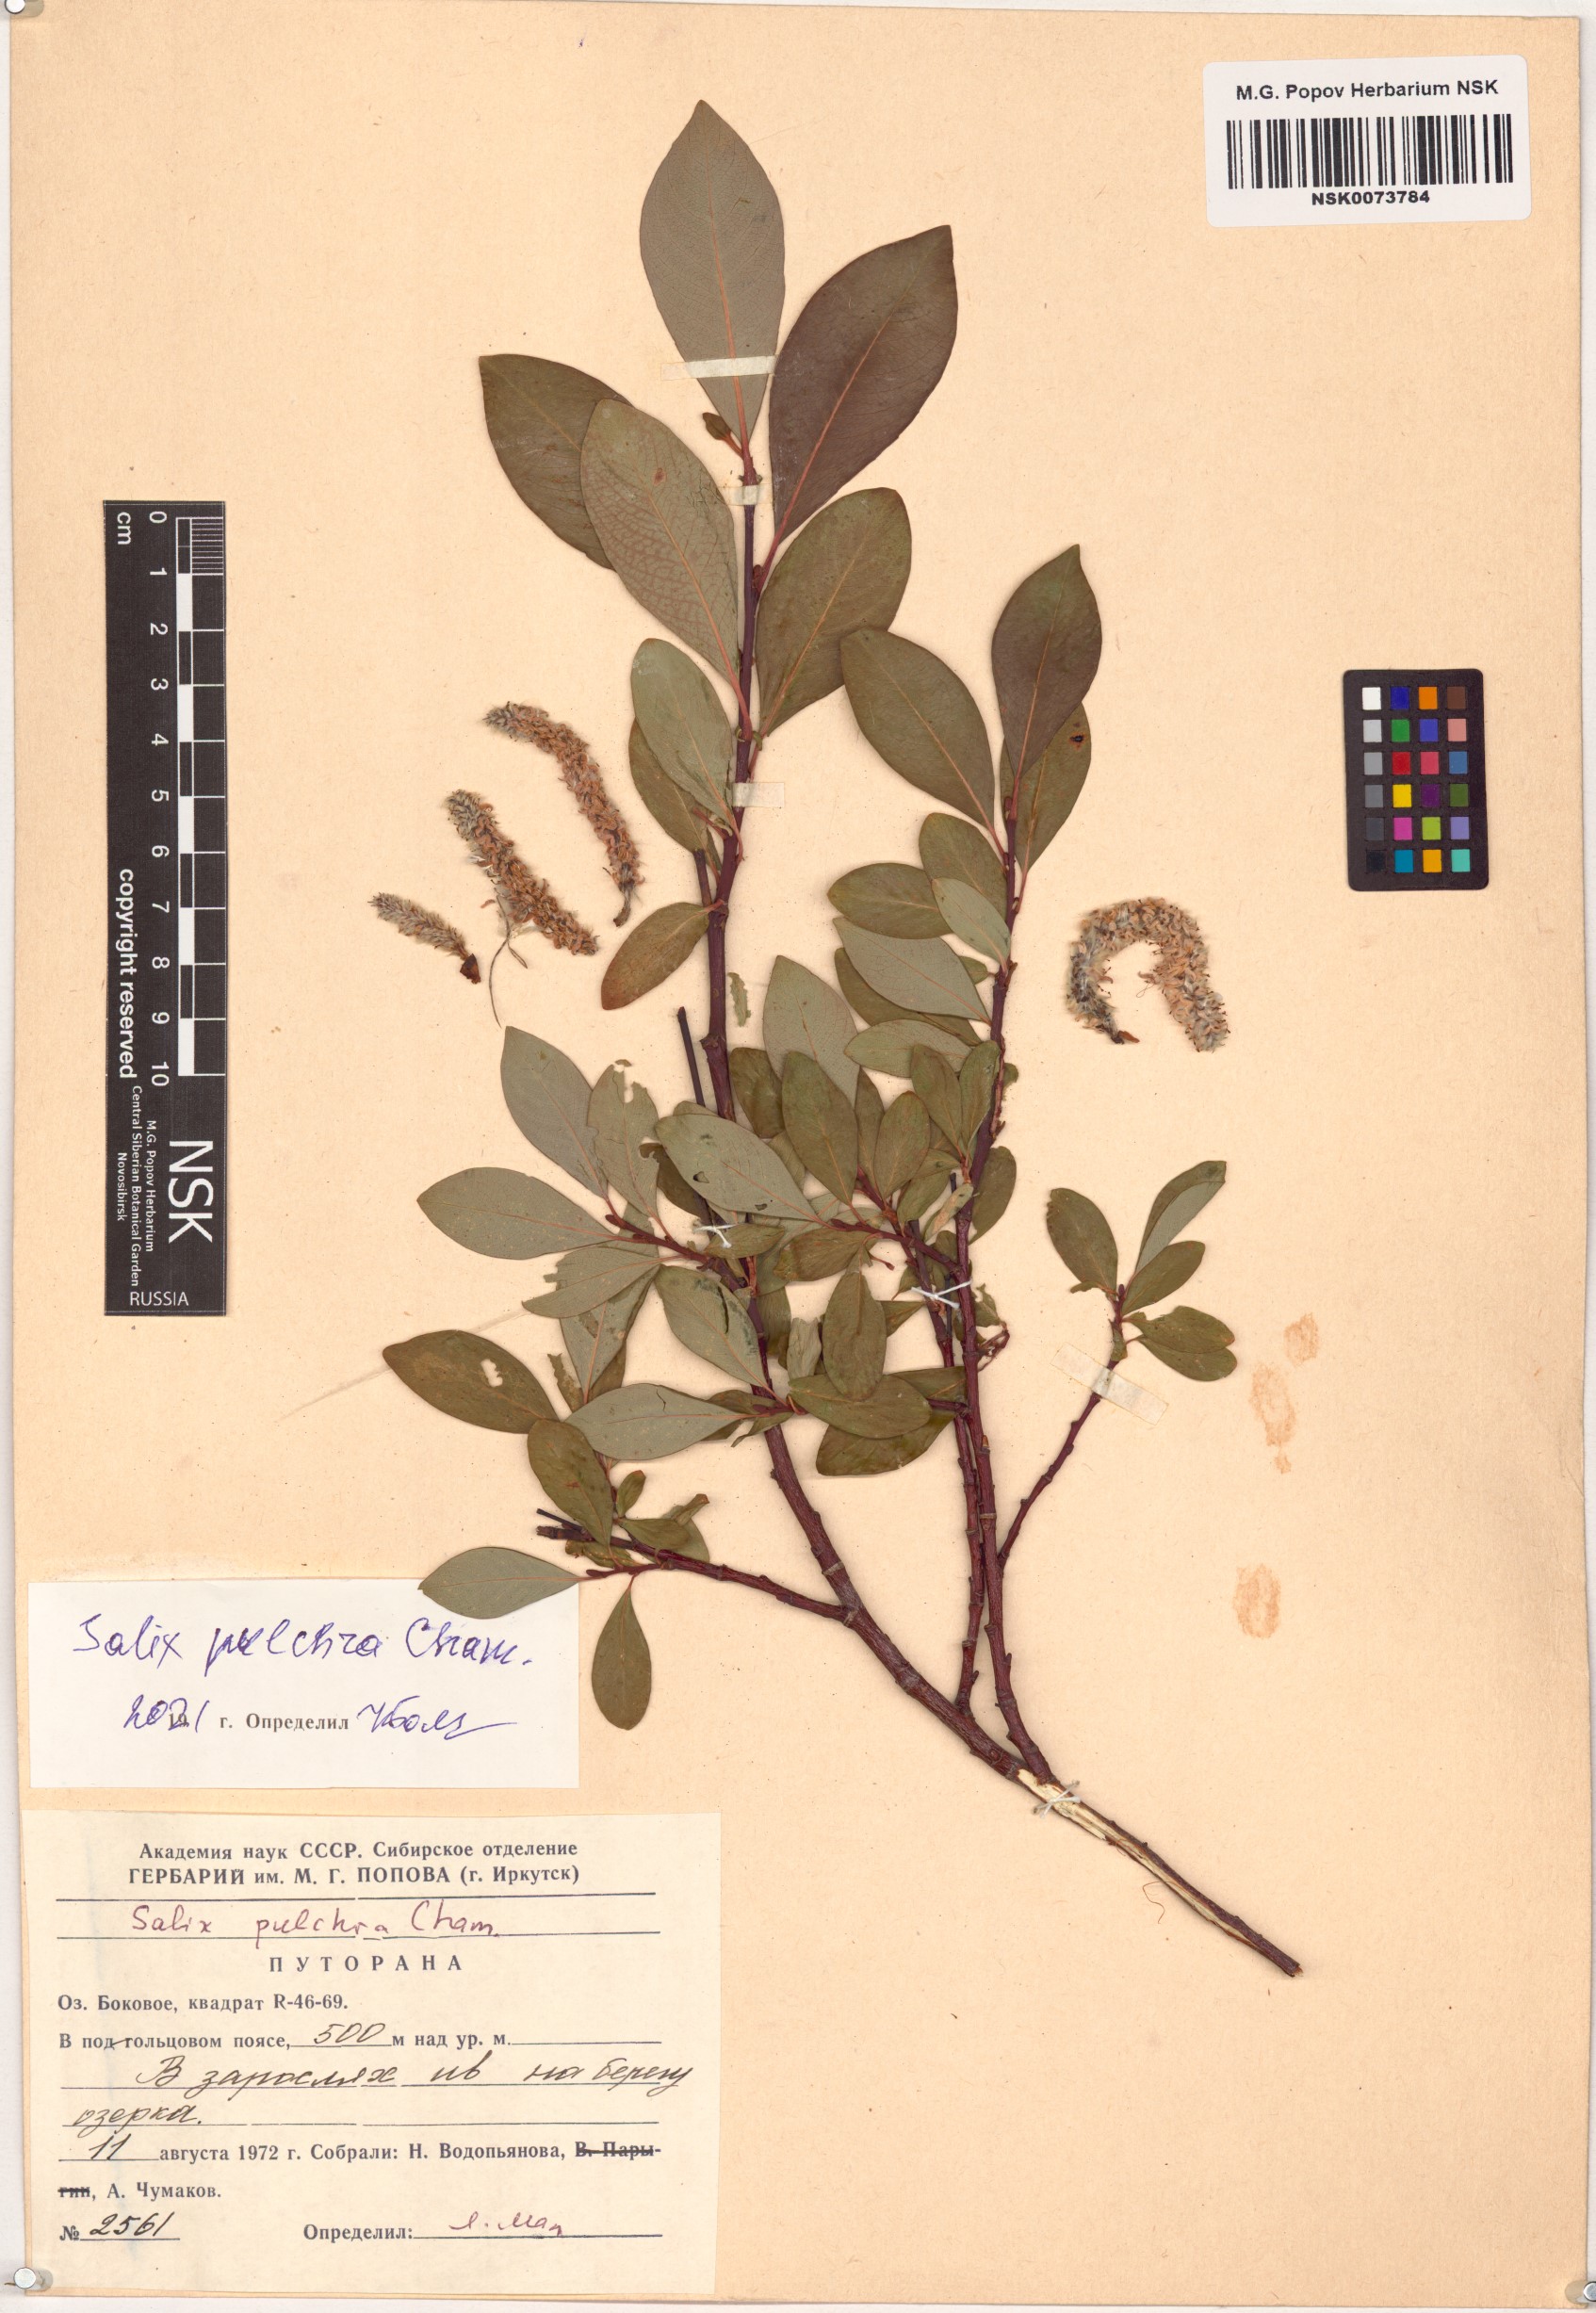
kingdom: Plantae
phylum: Tracheophyta
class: Magnoliopsida
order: Malpighiales
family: Salicaceae
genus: Salix
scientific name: Salix pulchra
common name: Diamond-leaved willow
